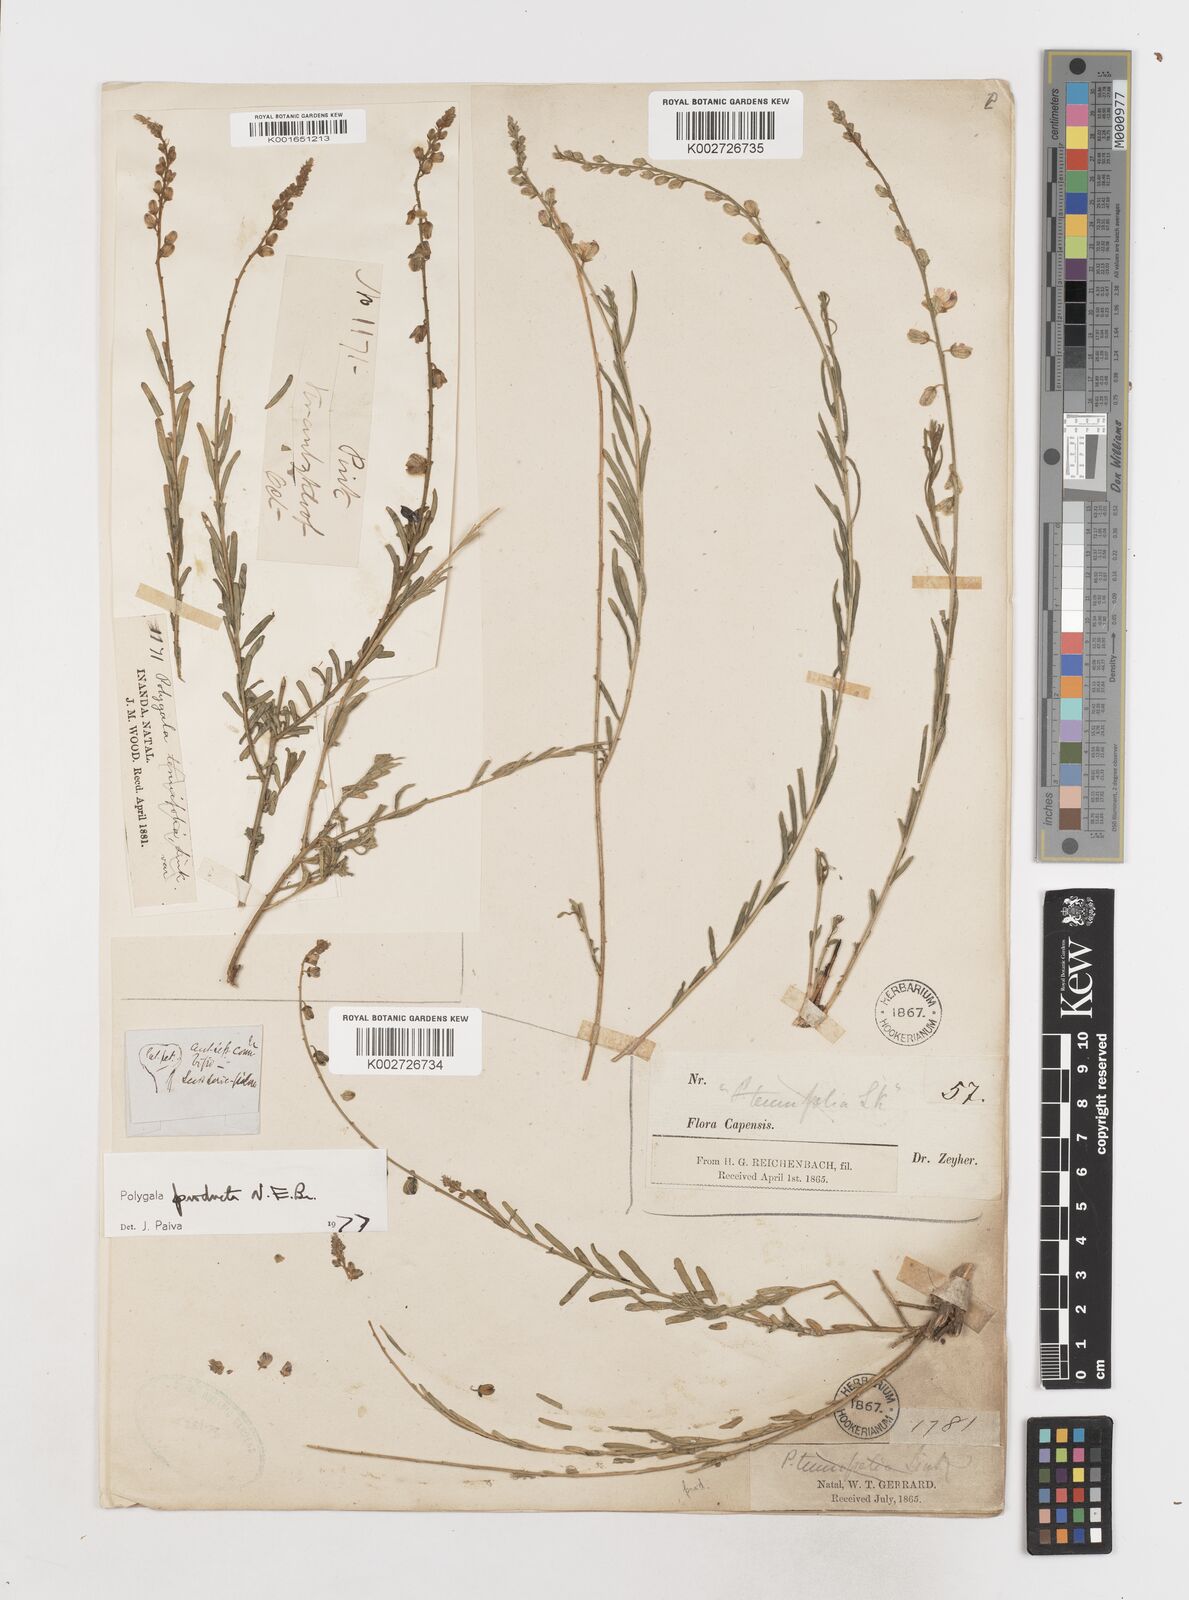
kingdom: Plantae
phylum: Tracheophyta
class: Magnoliopsida
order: Fabales
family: Polygalaceae
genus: Polygala
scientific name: Polygala producta
